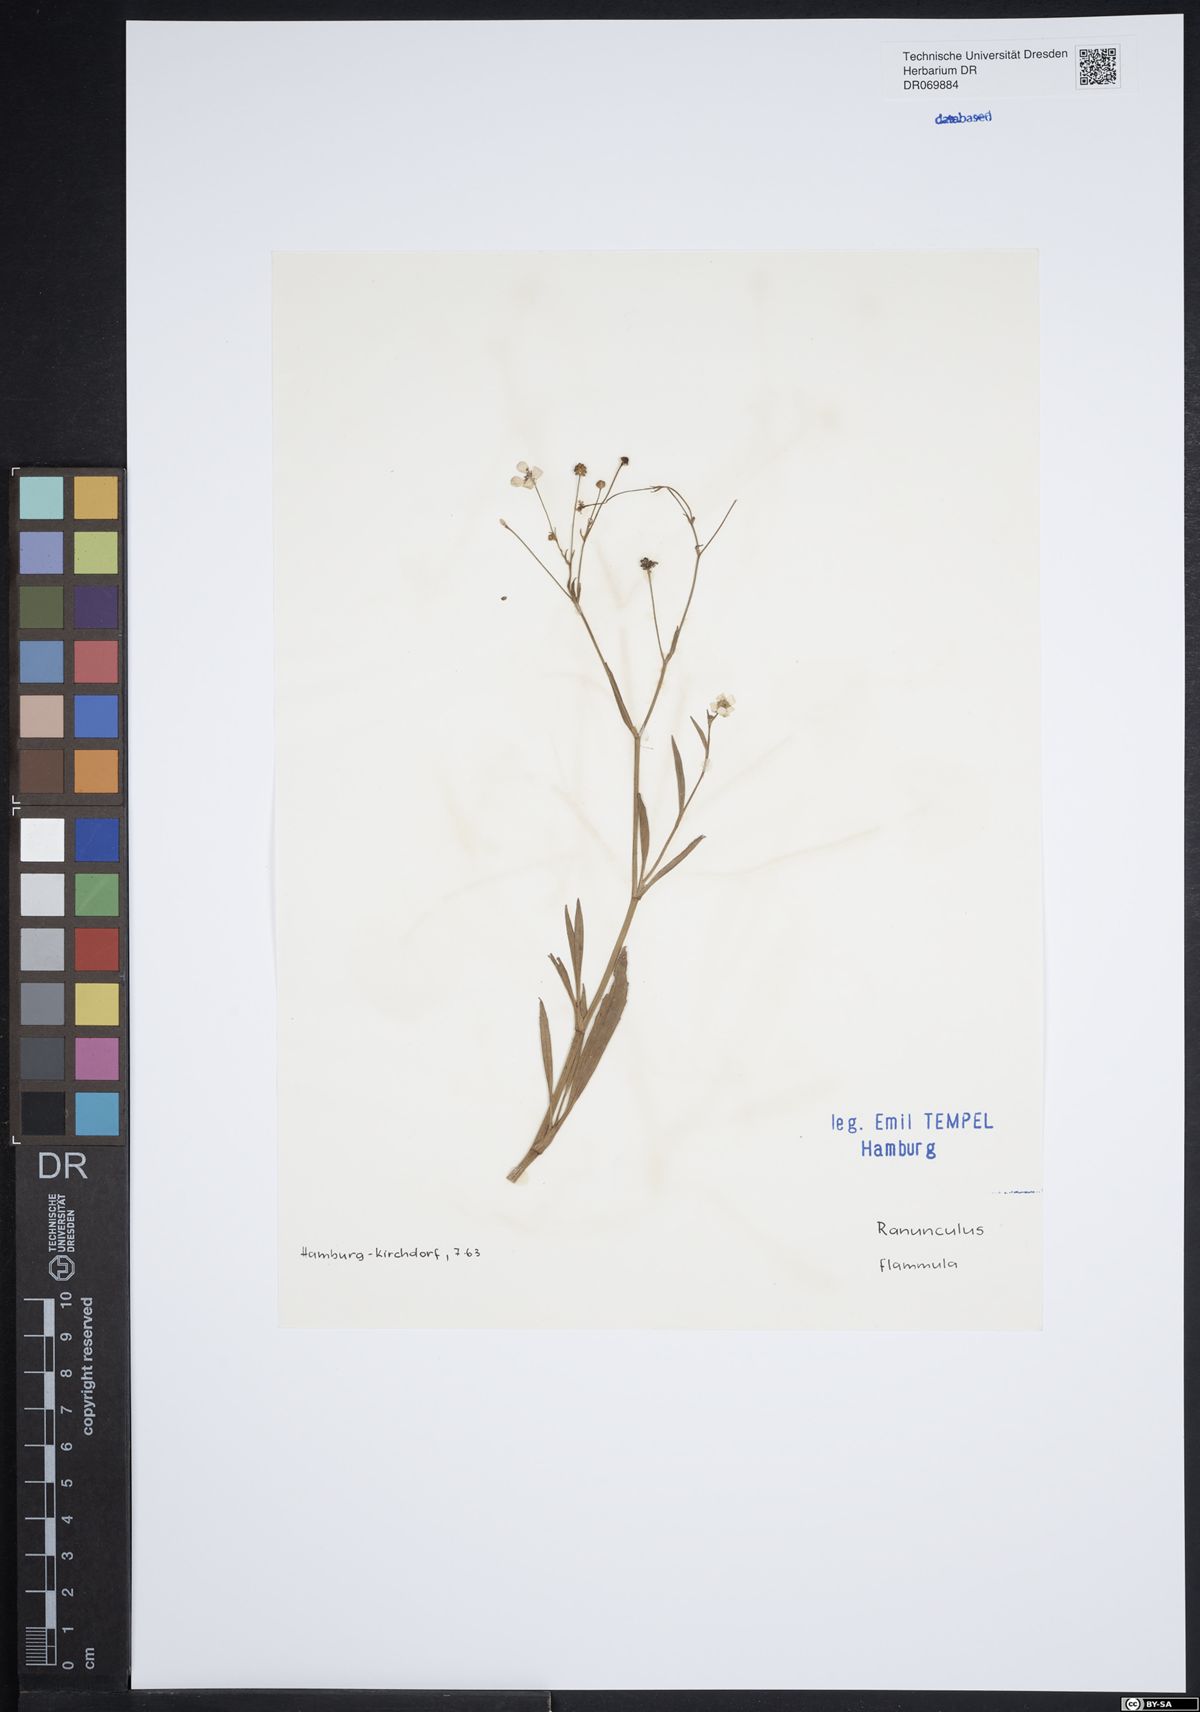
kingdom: Plantae
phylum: Tracheophyta
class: Magnoliopsida
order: Ranunculales
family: Ranunculaceae
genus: Ranunculus
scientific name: Ranunculus flammula
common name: Lesser spearwort
